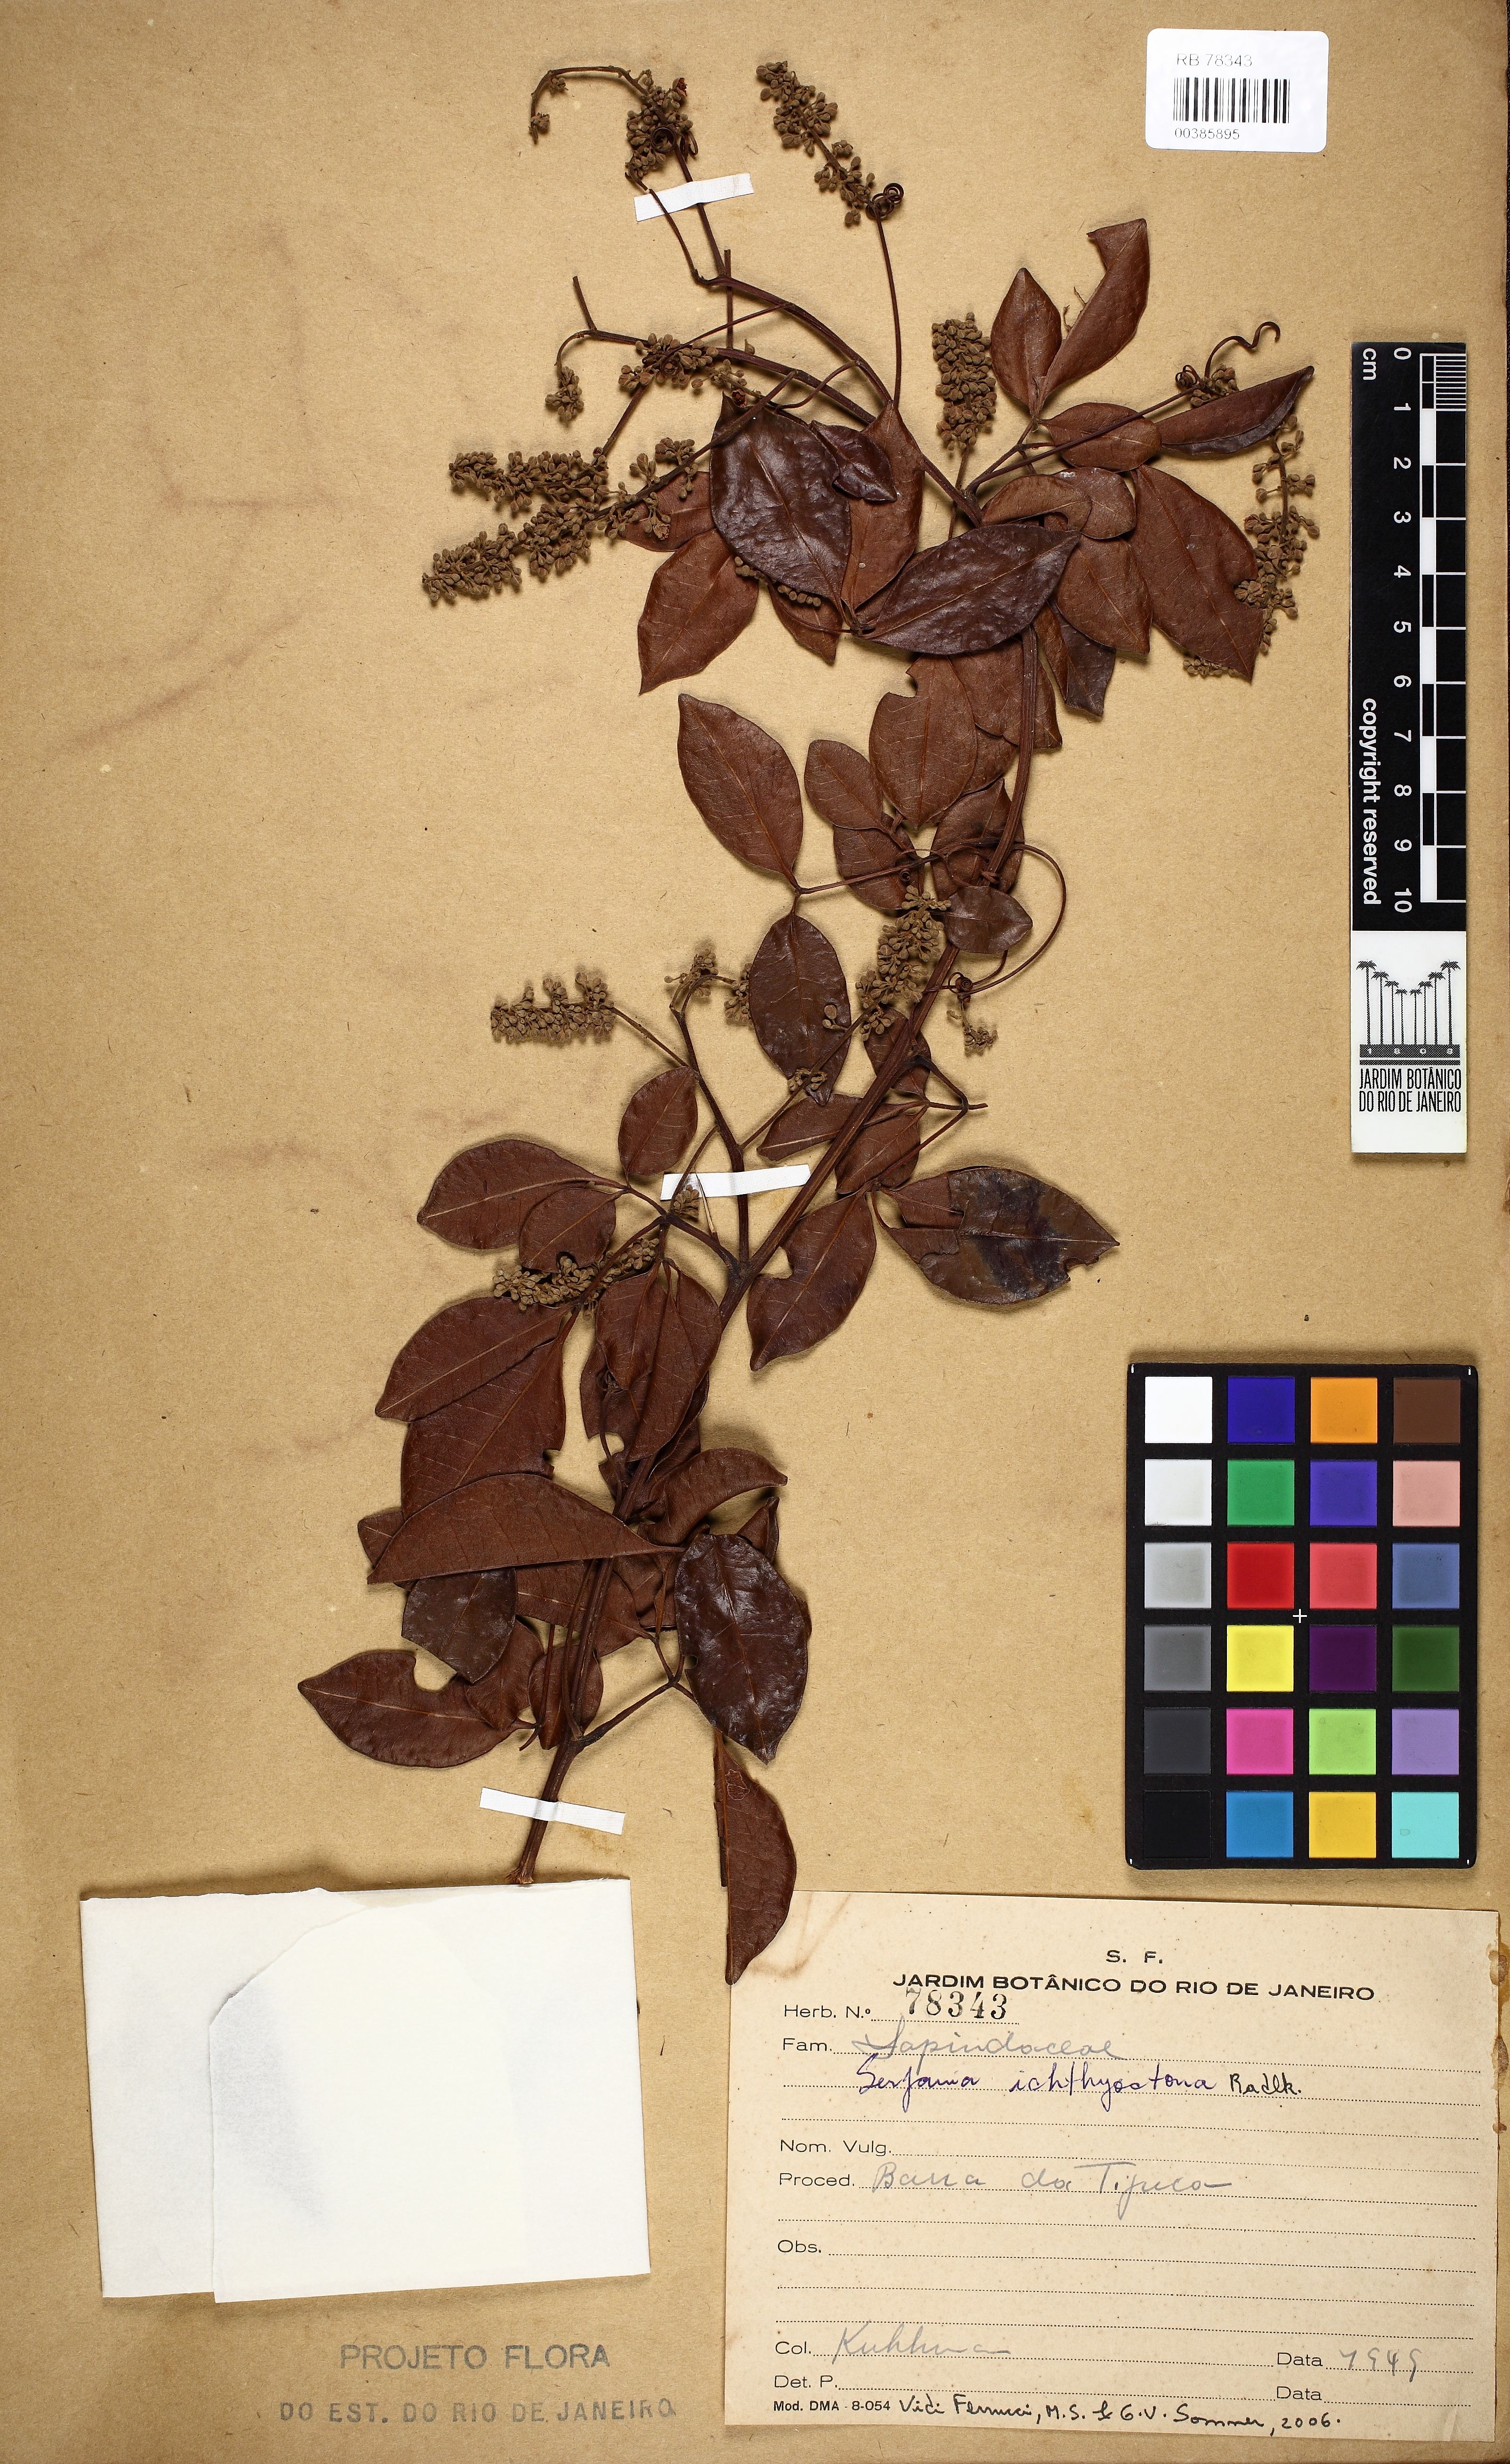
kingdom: Plantae
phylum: Tracheophyta
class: Magnoliopsida
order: Sapindales
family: Sapindaceae
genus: Serjania
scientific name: Serjania ichthyctona
